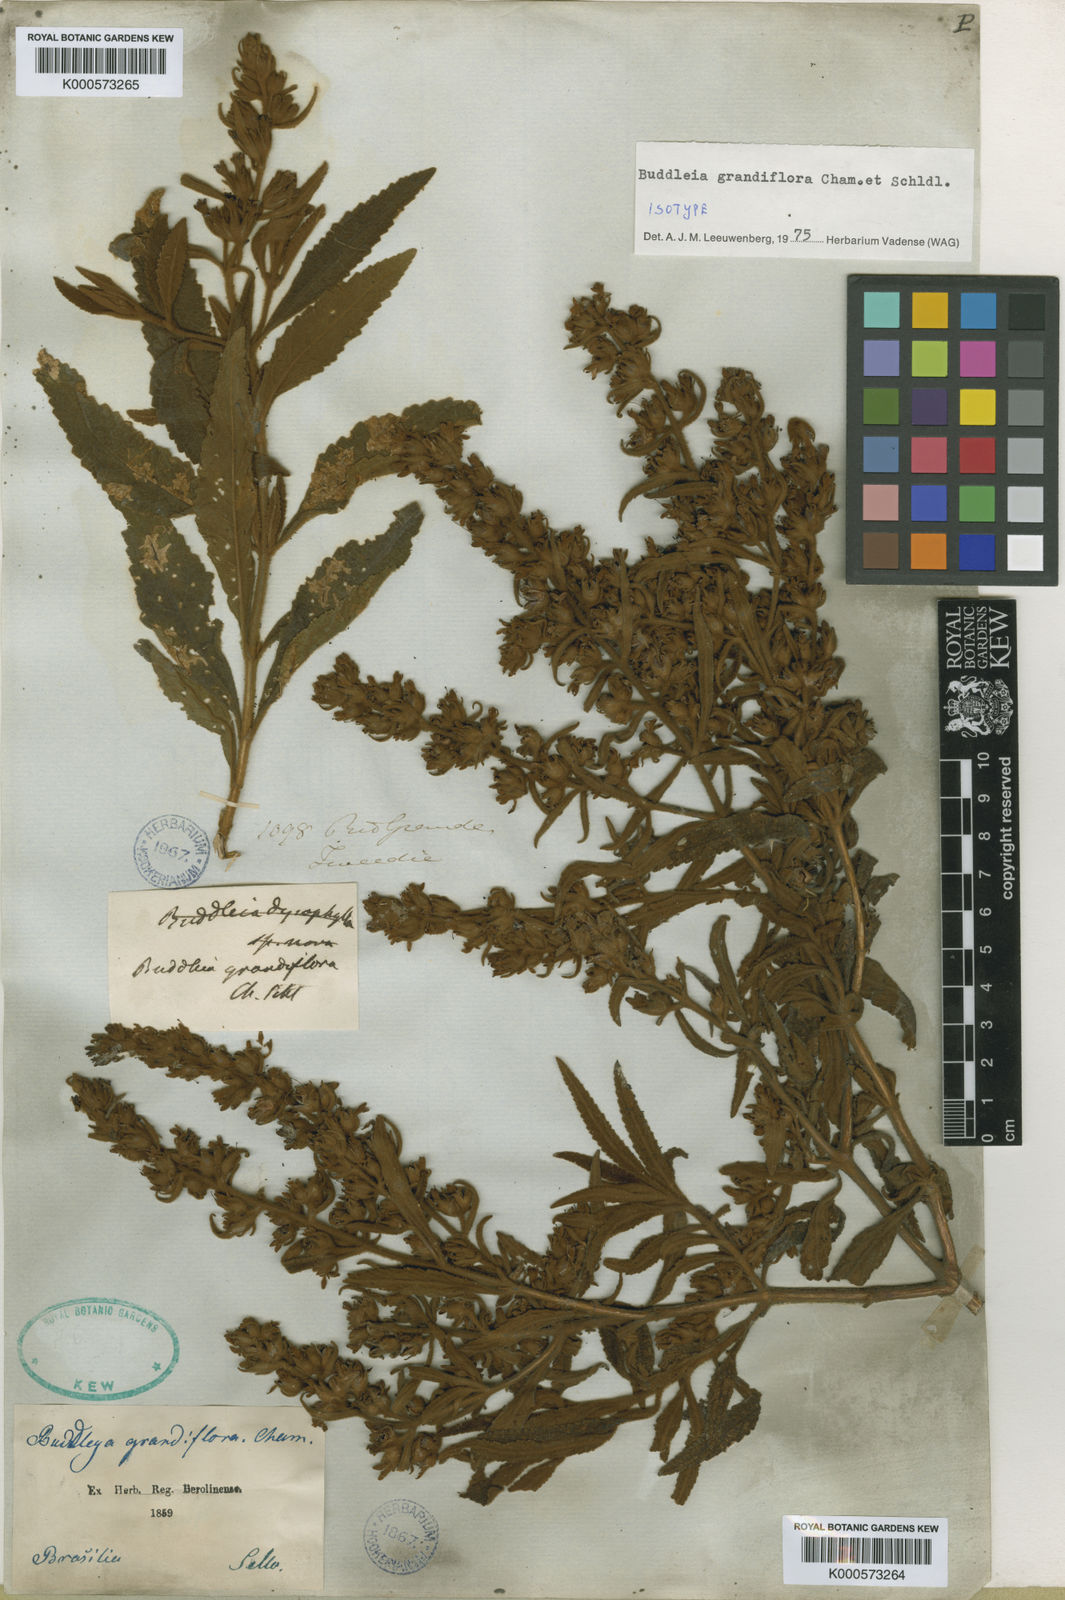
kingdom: Plantae
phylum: Tracheophyta
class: Magnoliopsida
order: Lamiales
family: Scrophulariaceae
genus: Buddleja
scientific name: Buddleja grandiflora
